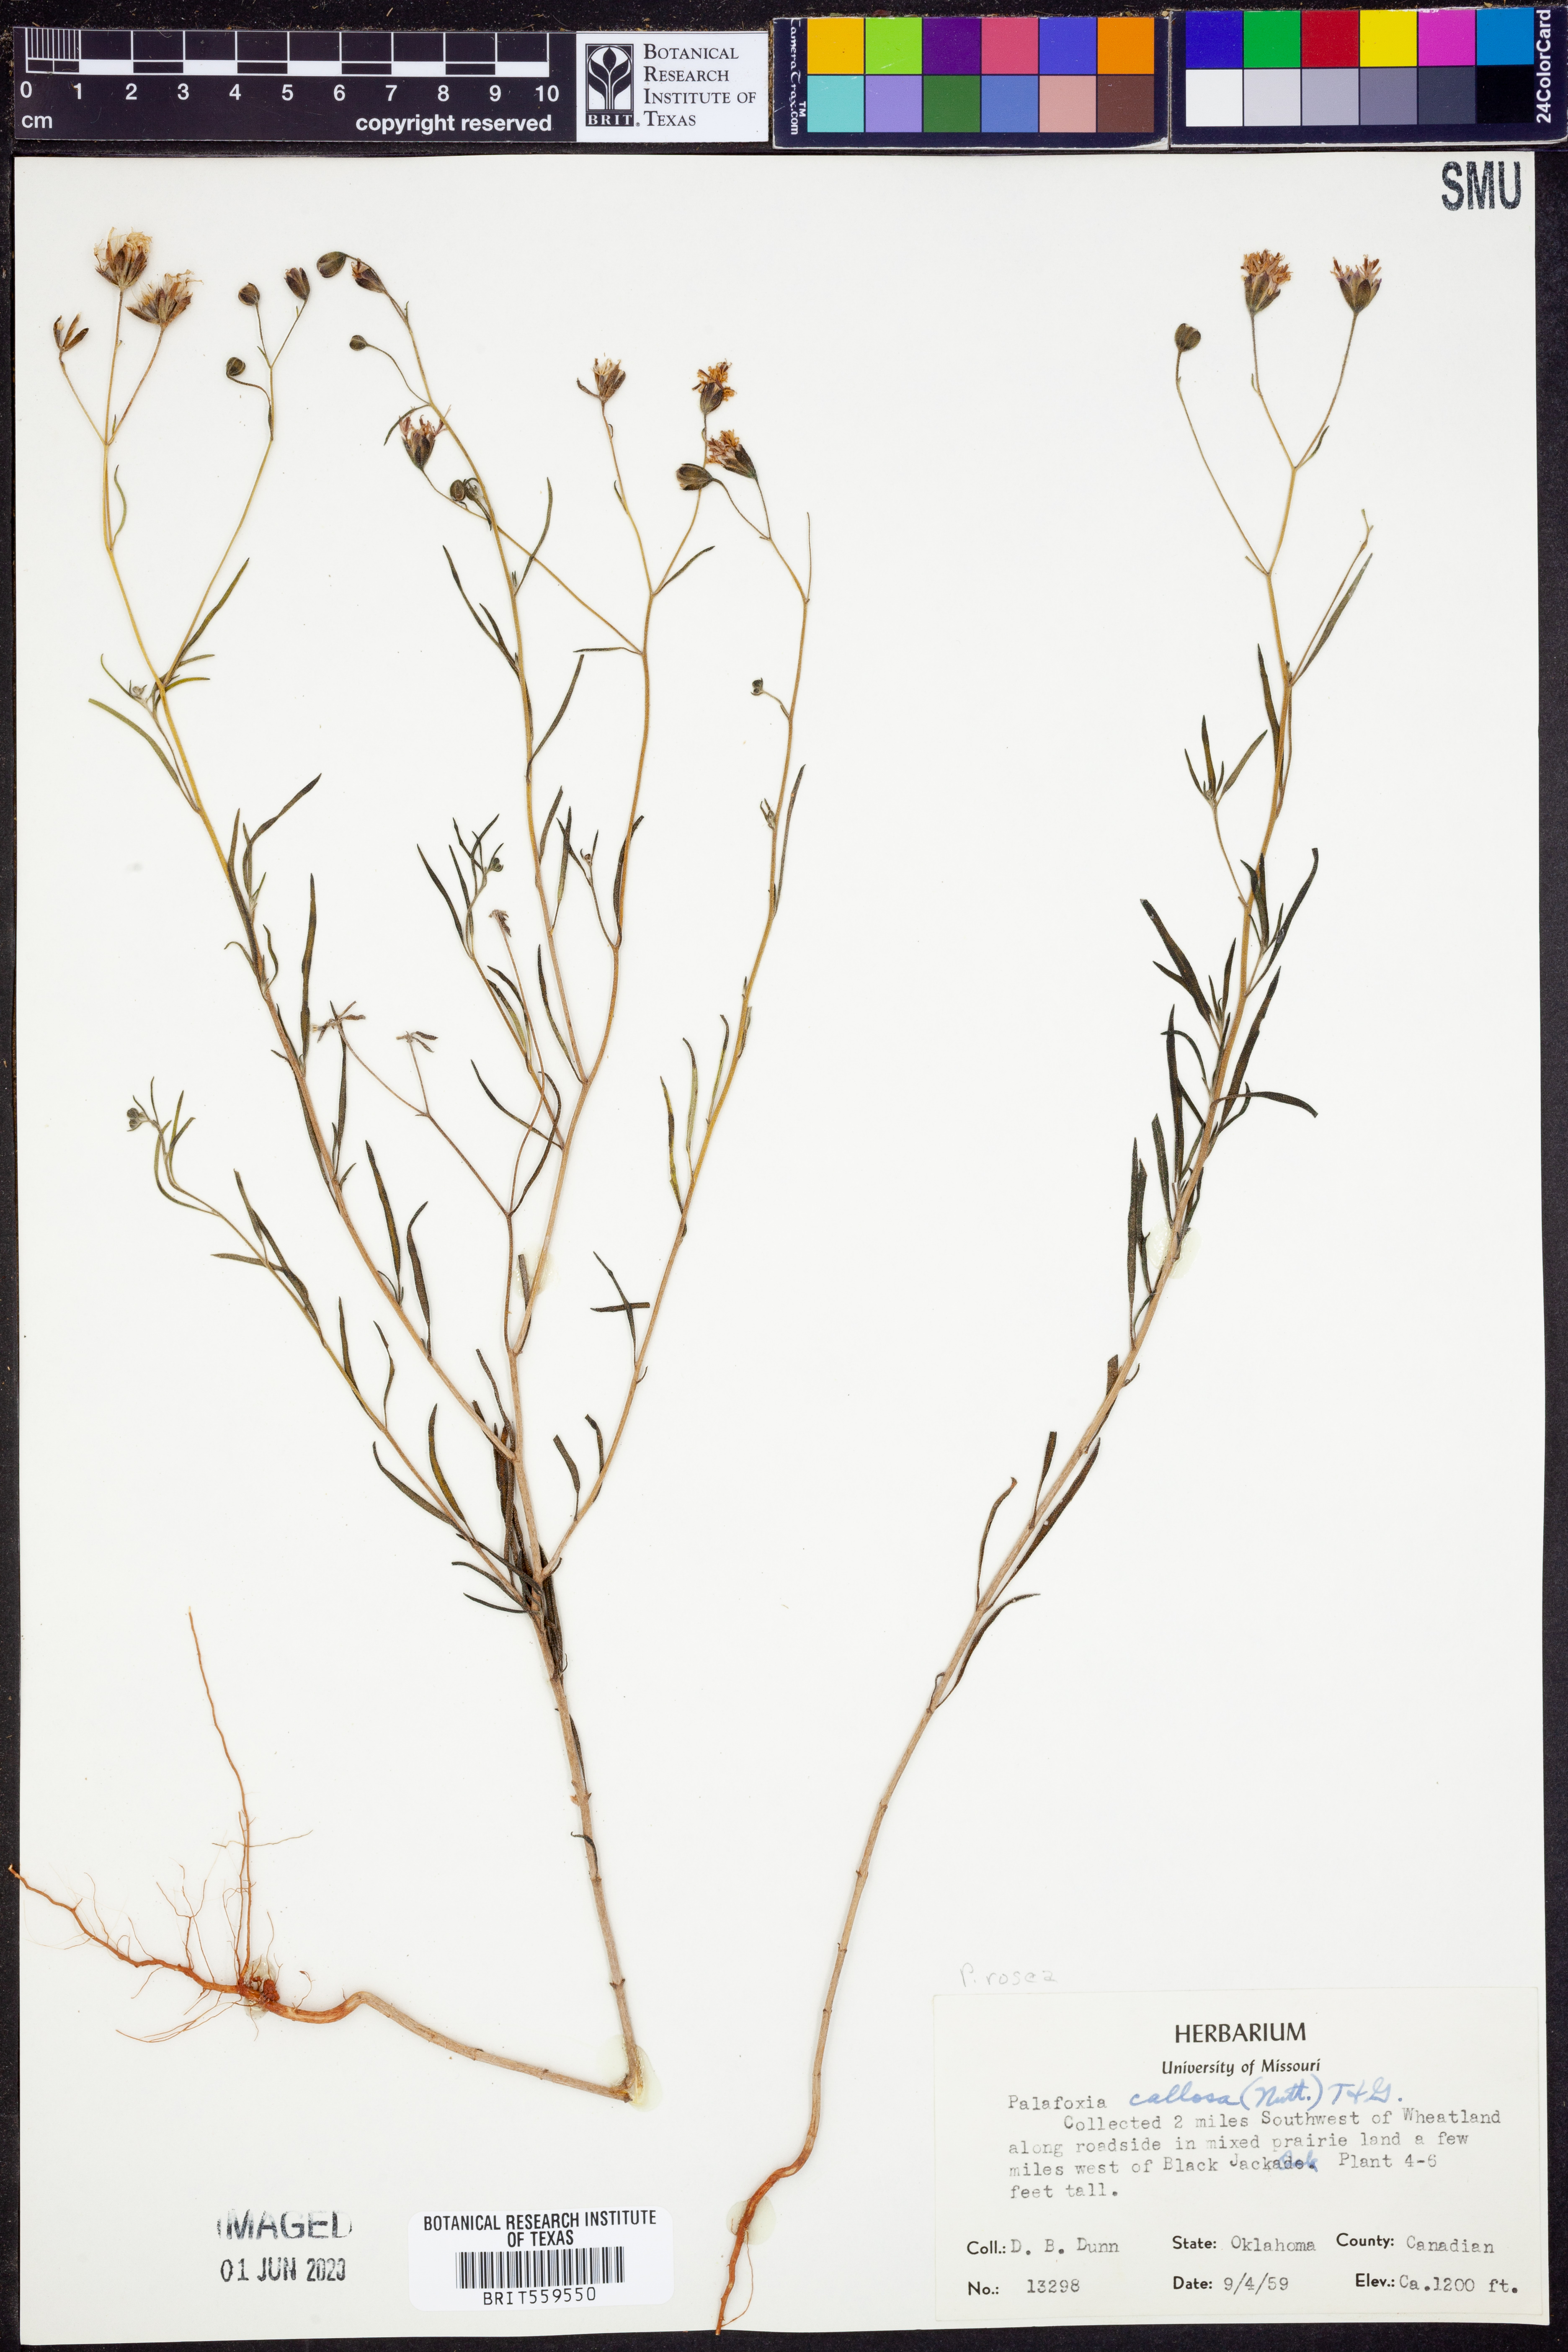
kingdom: Plantae
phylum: Tracheophyta
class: Magnoliopsida
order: Asterales
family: Asteraceae
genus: Palafoxia
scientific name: Palafoxia rosea
